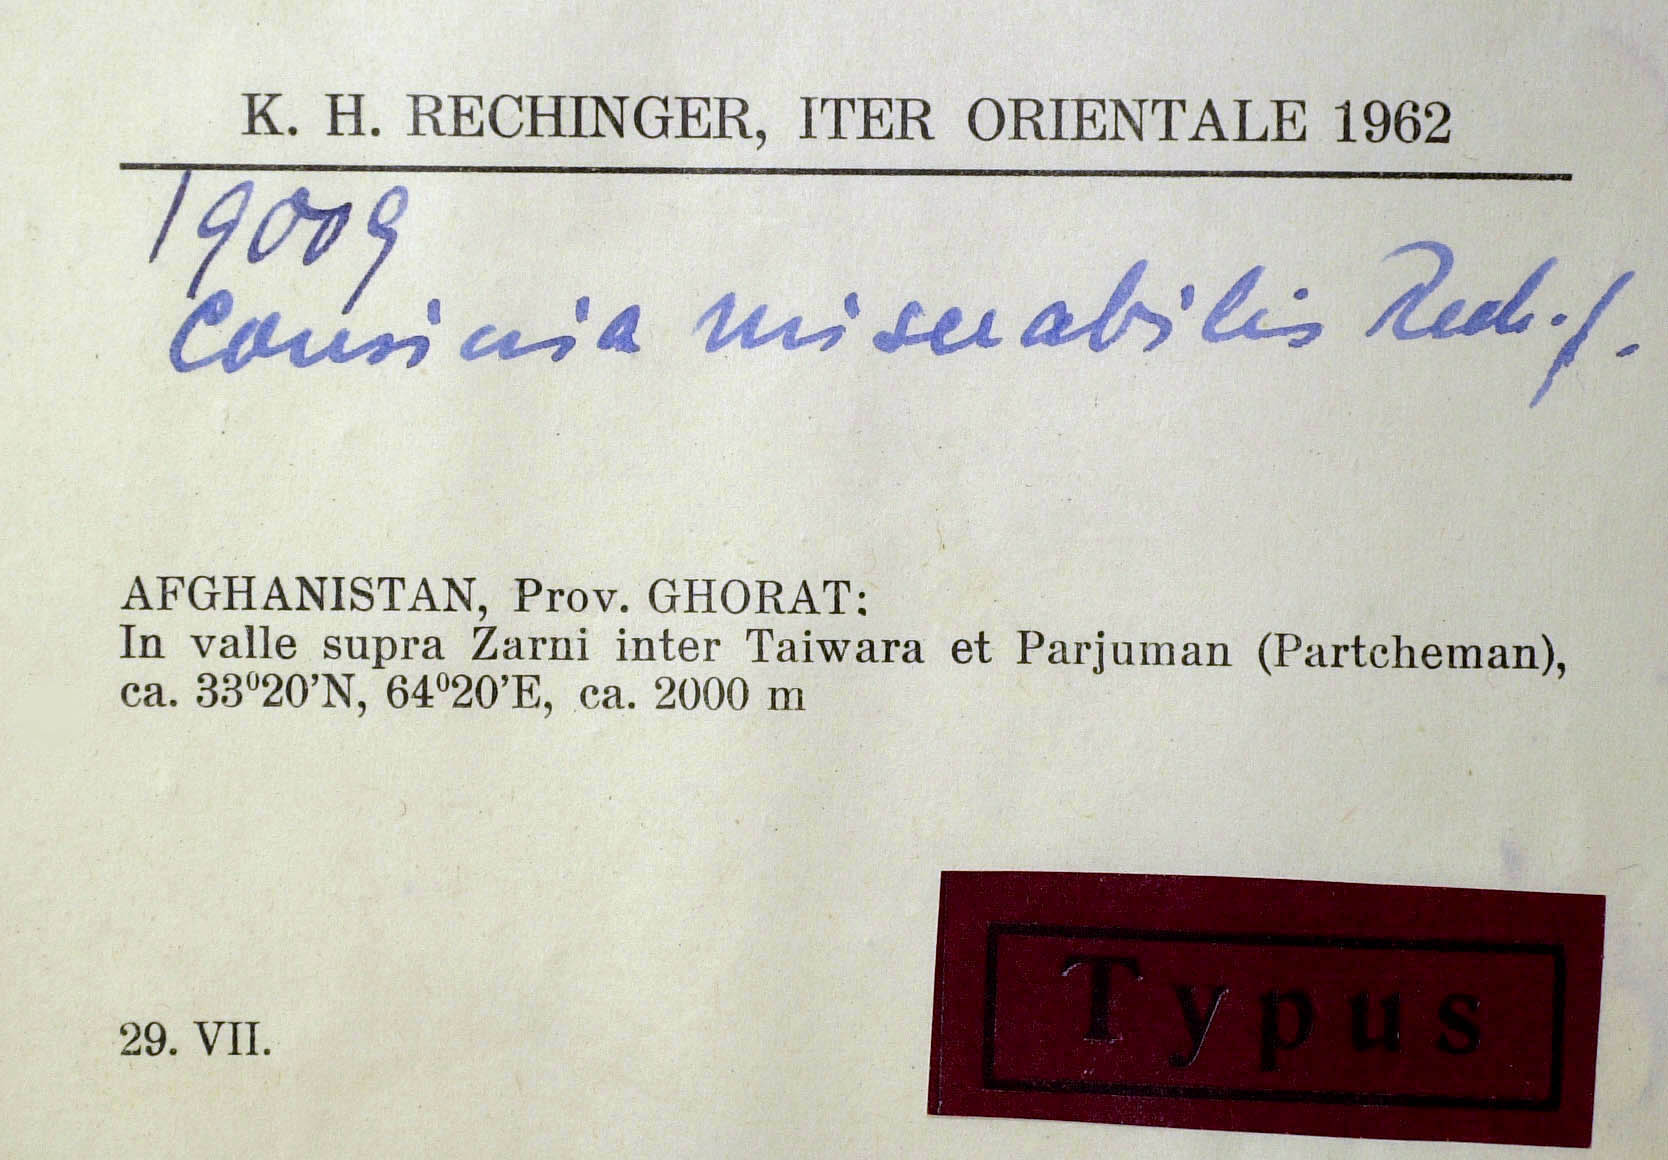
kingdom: Plantae
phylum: Tracheophyta
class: Magnoliopsida
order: Asterales
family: Asteraceae
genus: Cousinia
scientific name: Cousinia miserabilis
